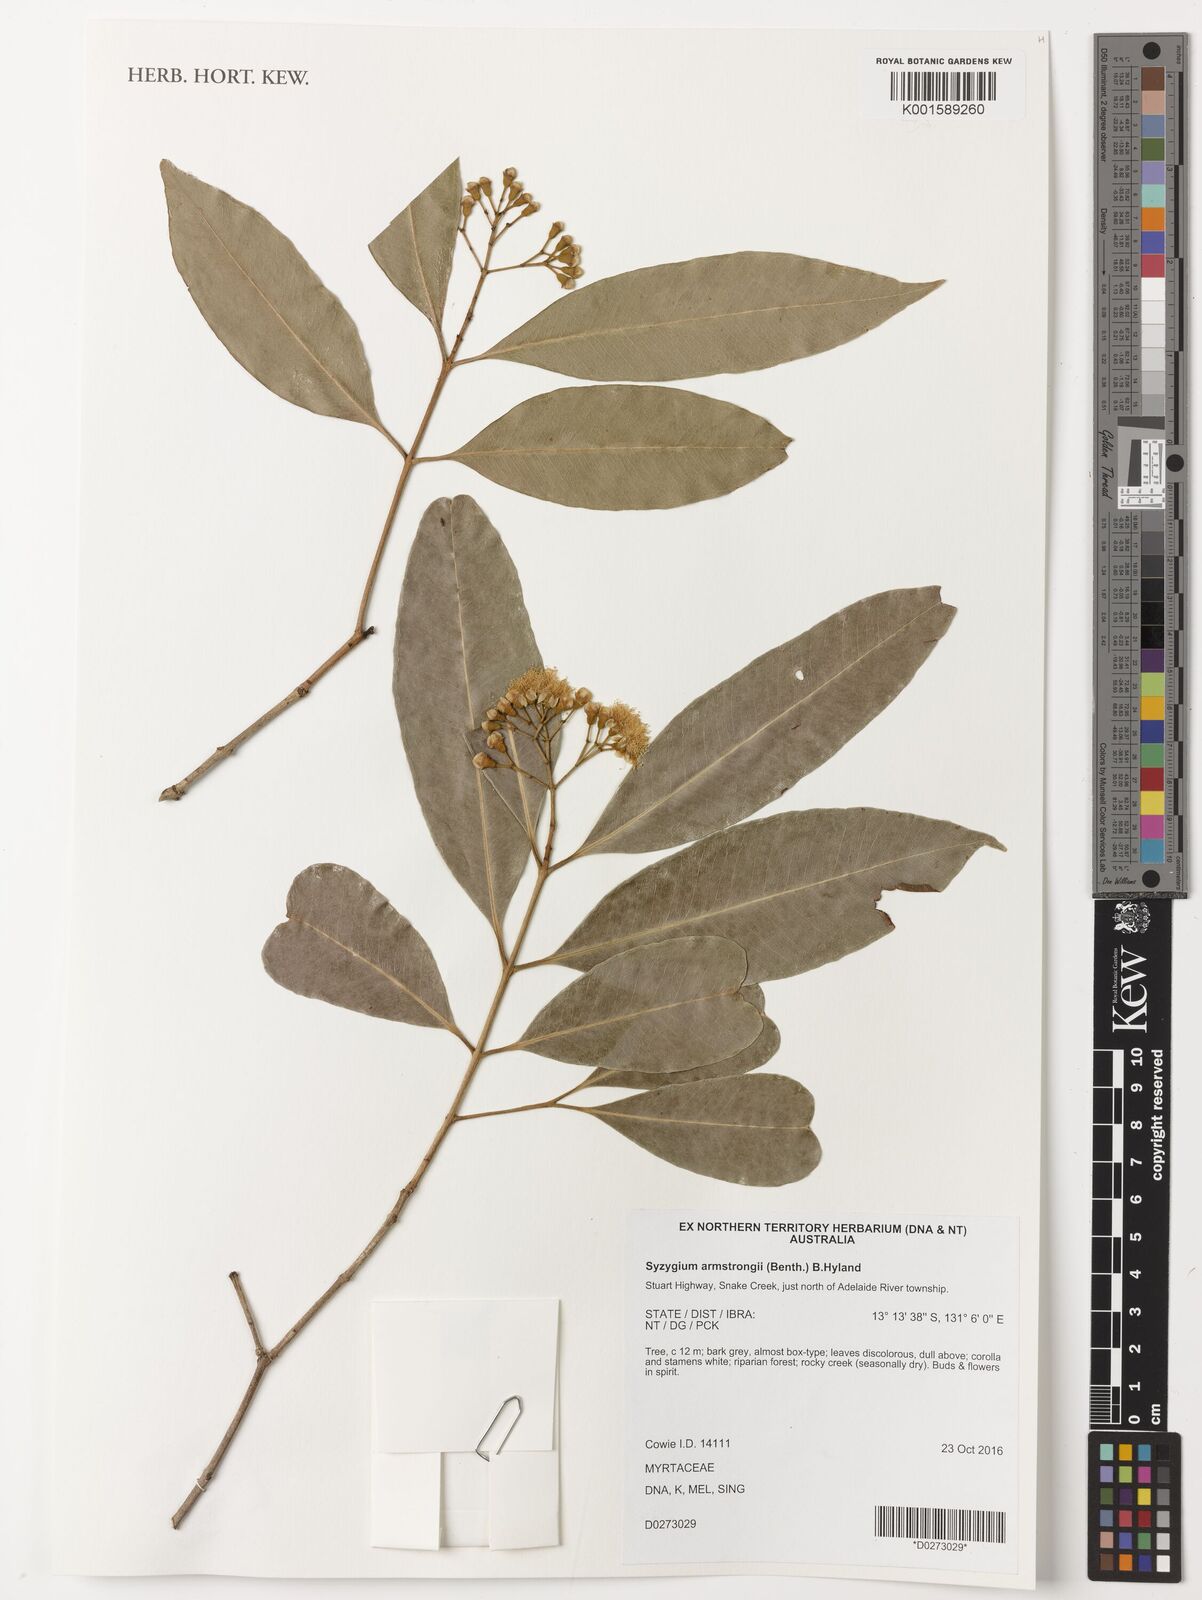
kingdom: Plantae
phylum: Tracheophyta
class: Magnoliopsida
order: Myrtales
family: Myrtaceae
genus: Syzygium
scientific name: Syzygium armstrongii
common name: Small white bush apple
